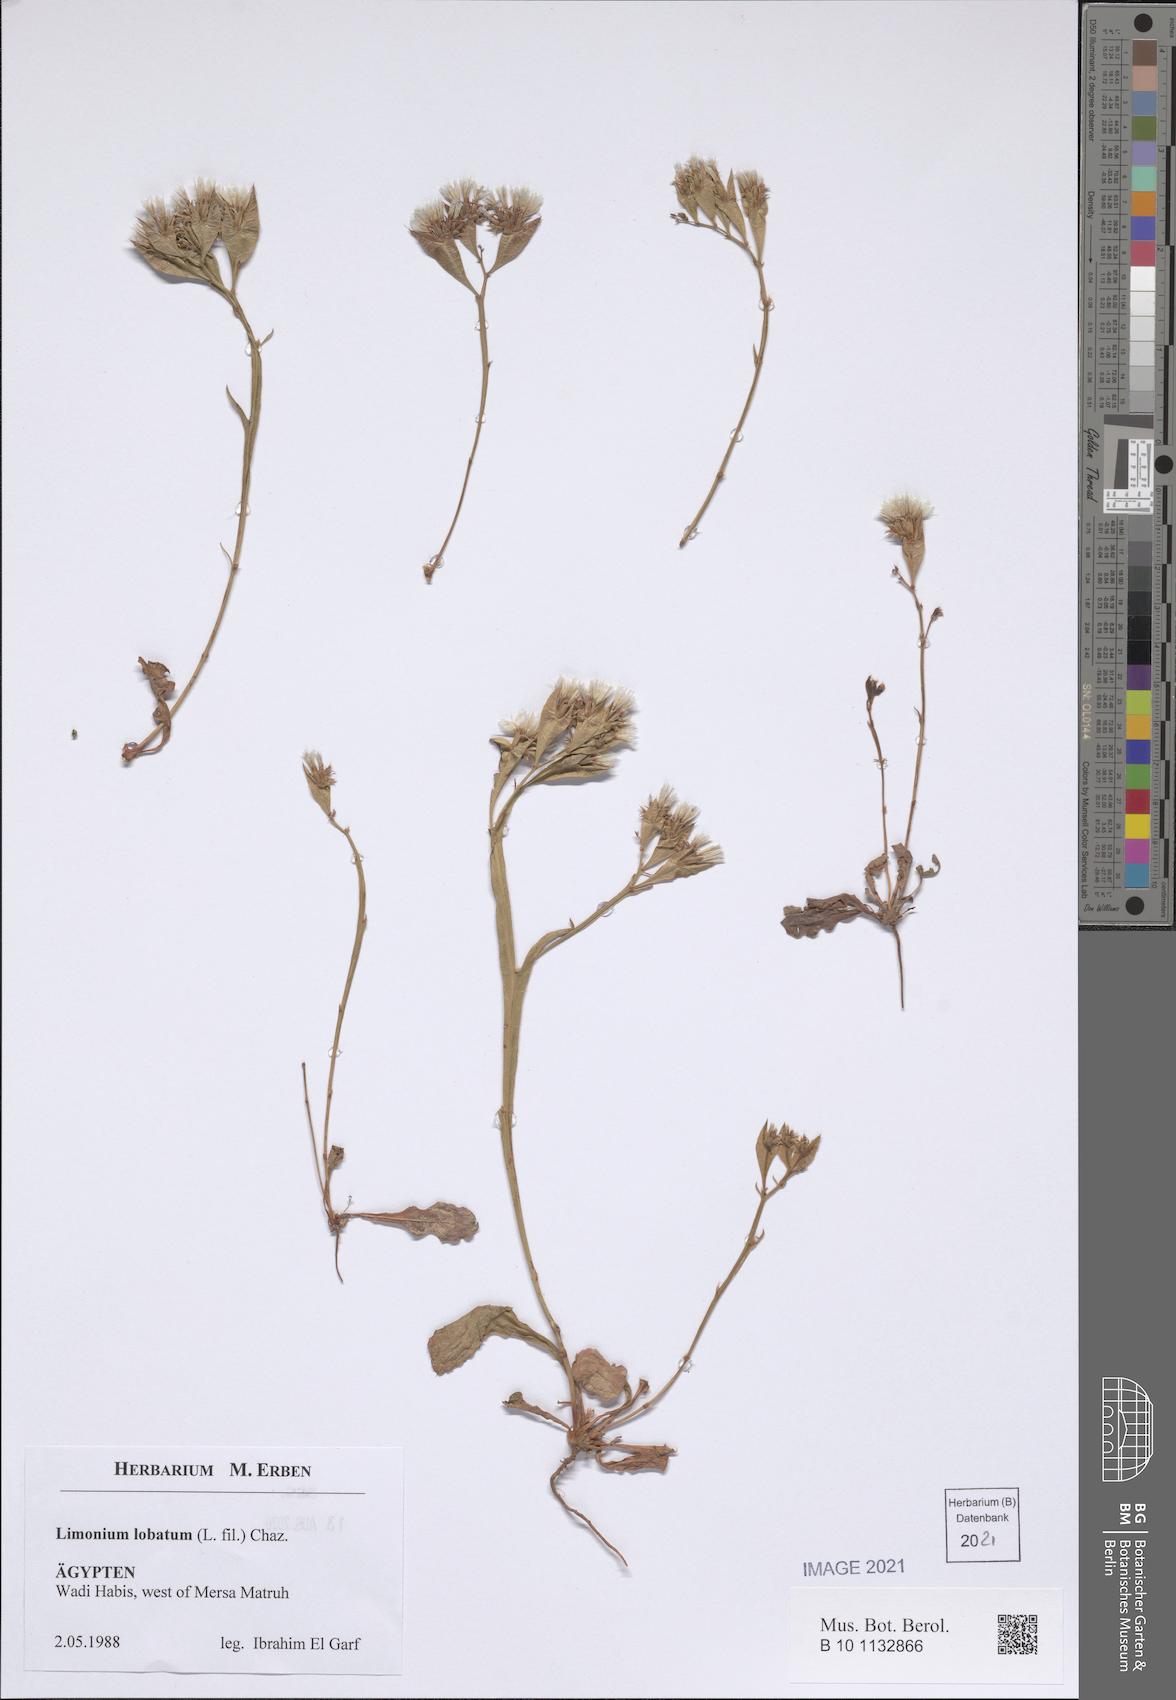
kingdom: Plantae
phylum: Tracheophyta
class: Magnoliopsida
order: Caryophyllales
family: Plumbaginaceae
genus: Limonium
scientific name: Limonium lobatum
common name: Winged sea-lavender
